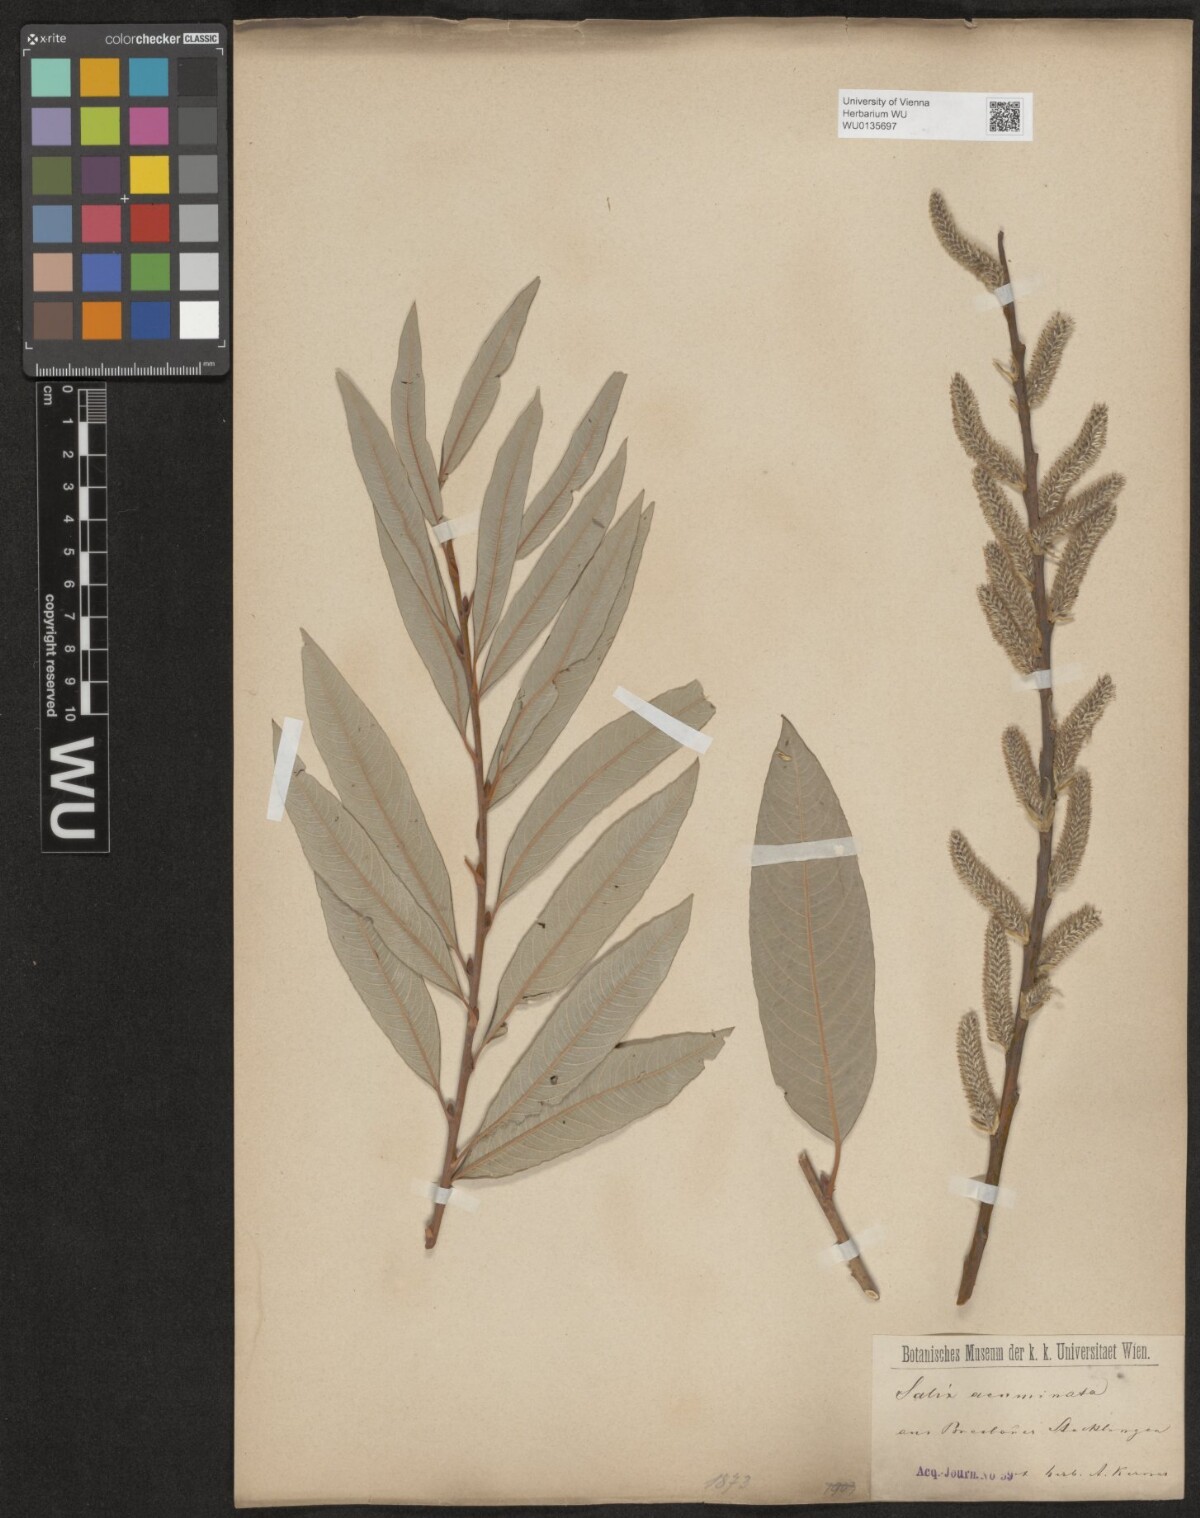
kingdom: Plantae
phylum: Tracheophyta
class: Magnoliopsida
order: Malpighiales
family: Salicaceae
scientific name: Salicaceae
